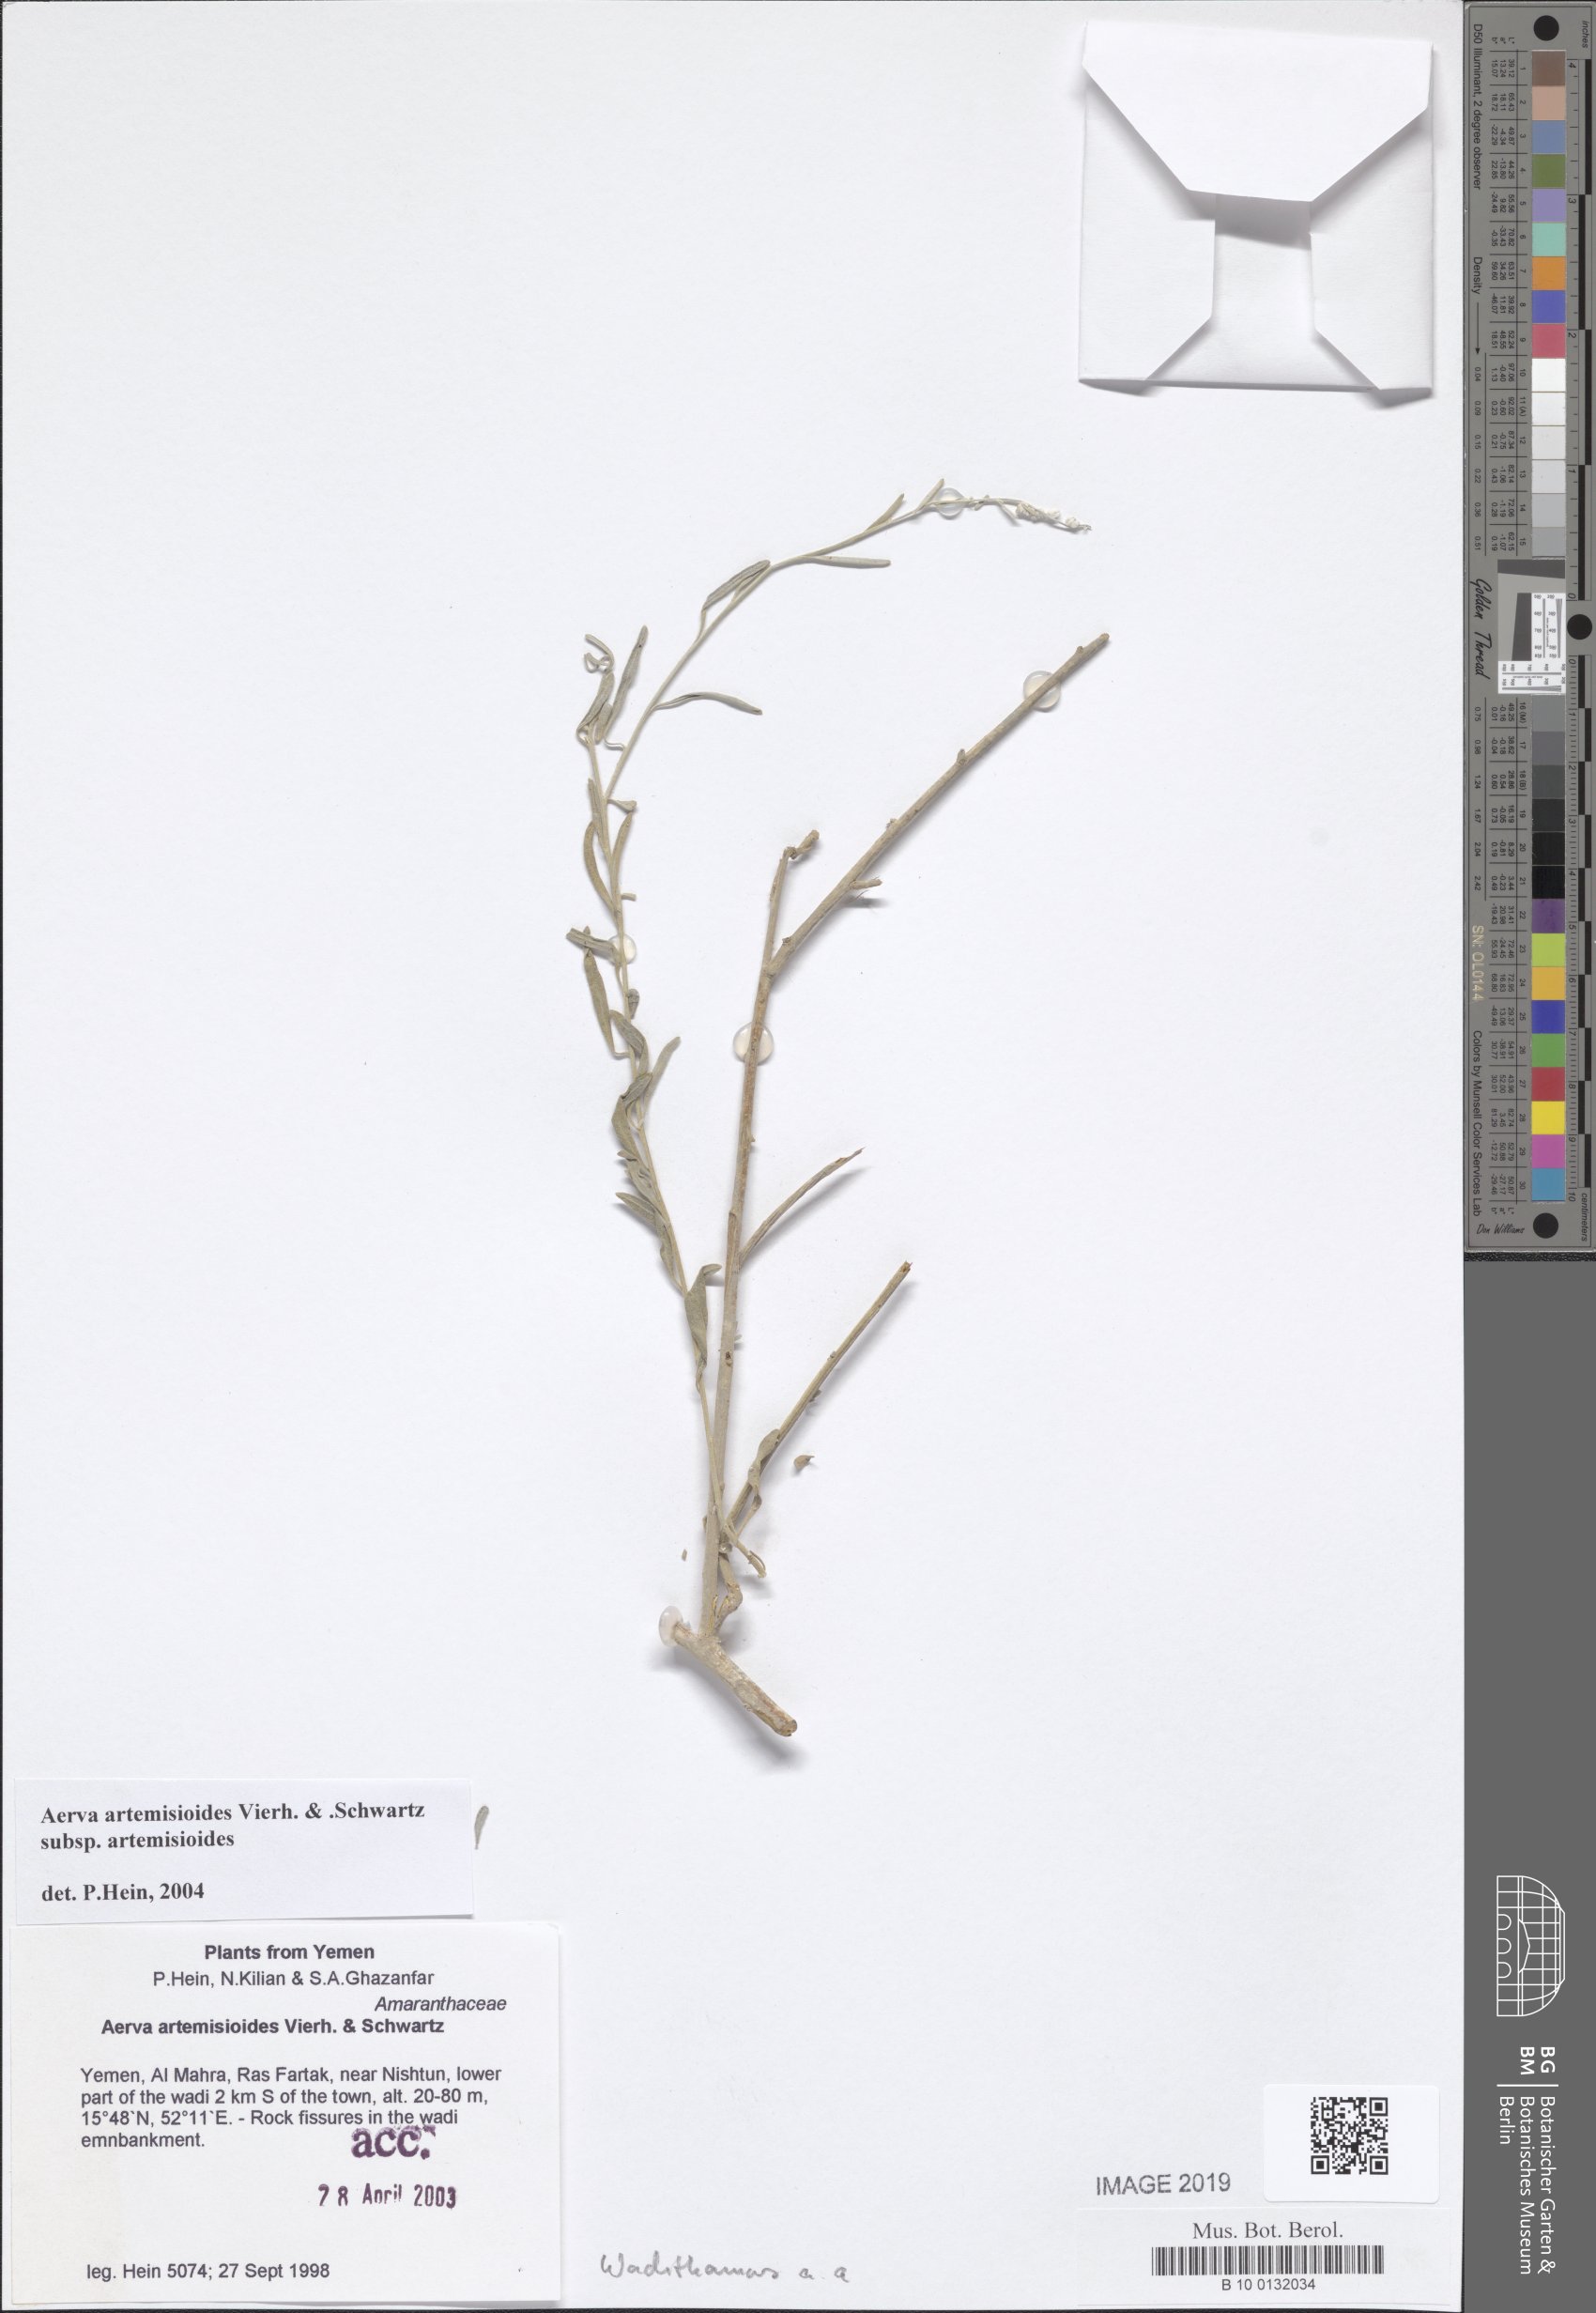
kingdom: Plantae
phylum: Tracheophyta
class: Magnoliopsida
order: Caryophyllales
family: Amaranthaceae
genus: Wadithamnus
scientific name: Wadithamnus artemisioides
